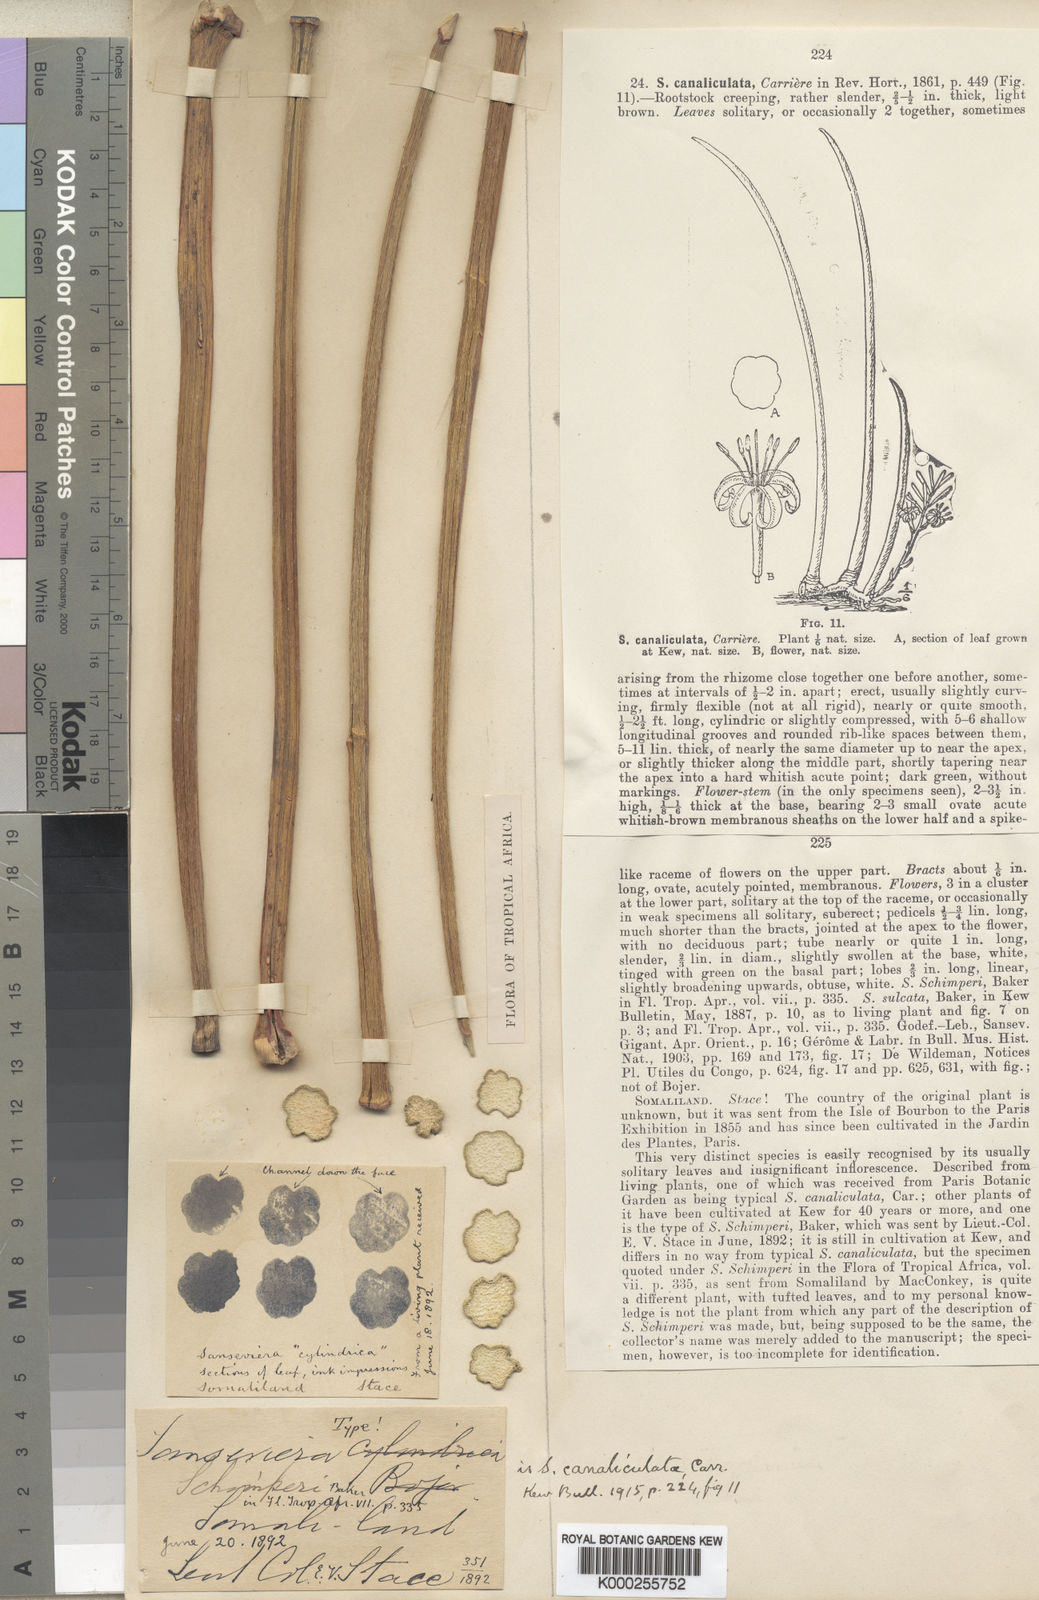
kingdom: Plantae
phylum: Tracheophyta
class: Liliopsida
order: Asparagales
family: Asparagaceae
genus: Dracaena
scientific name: Dracaena canaliculata
